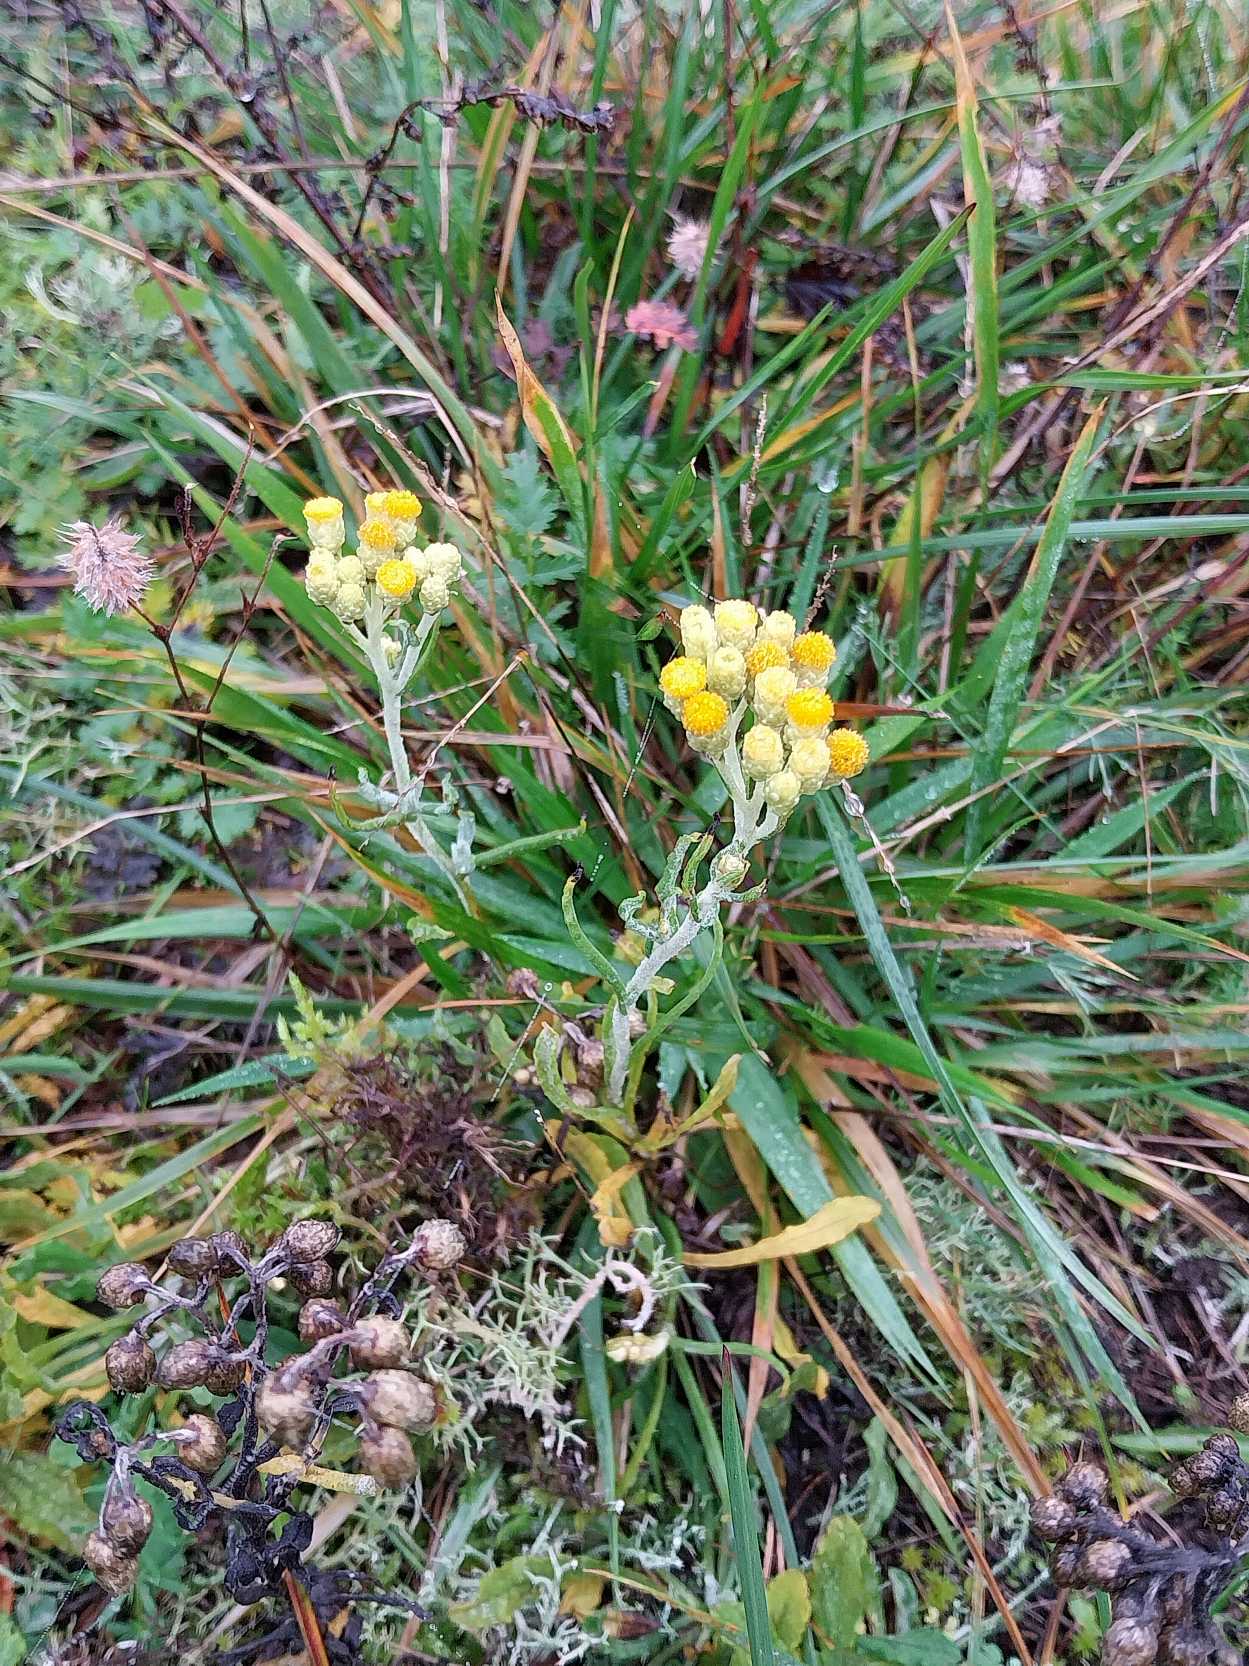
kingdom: Plantae
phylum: Tracheophyta
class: Magnoliopsida
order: Asterales
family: Asteraceae
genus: Helichrysum
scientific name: Helichrysum arenarium
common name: Gul evighedsblomst
